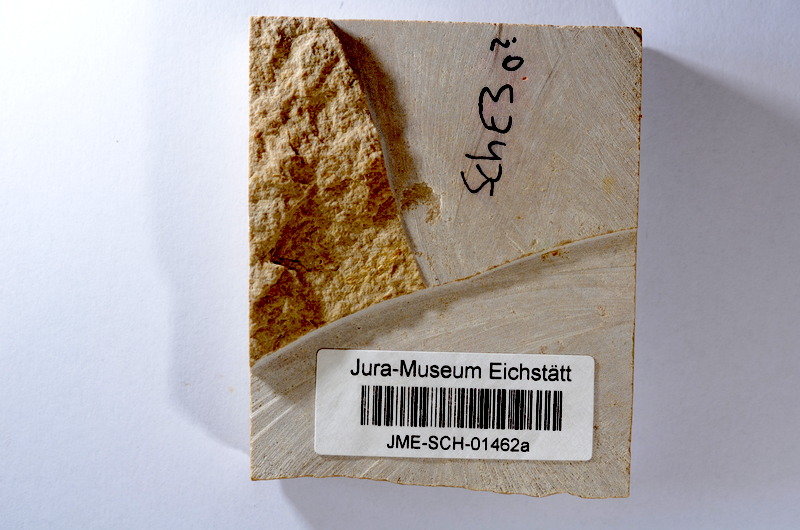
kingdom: Animalia
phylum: Chordata
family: Ascalaboidae
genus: Tharsis
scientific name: Tharsis dubius
